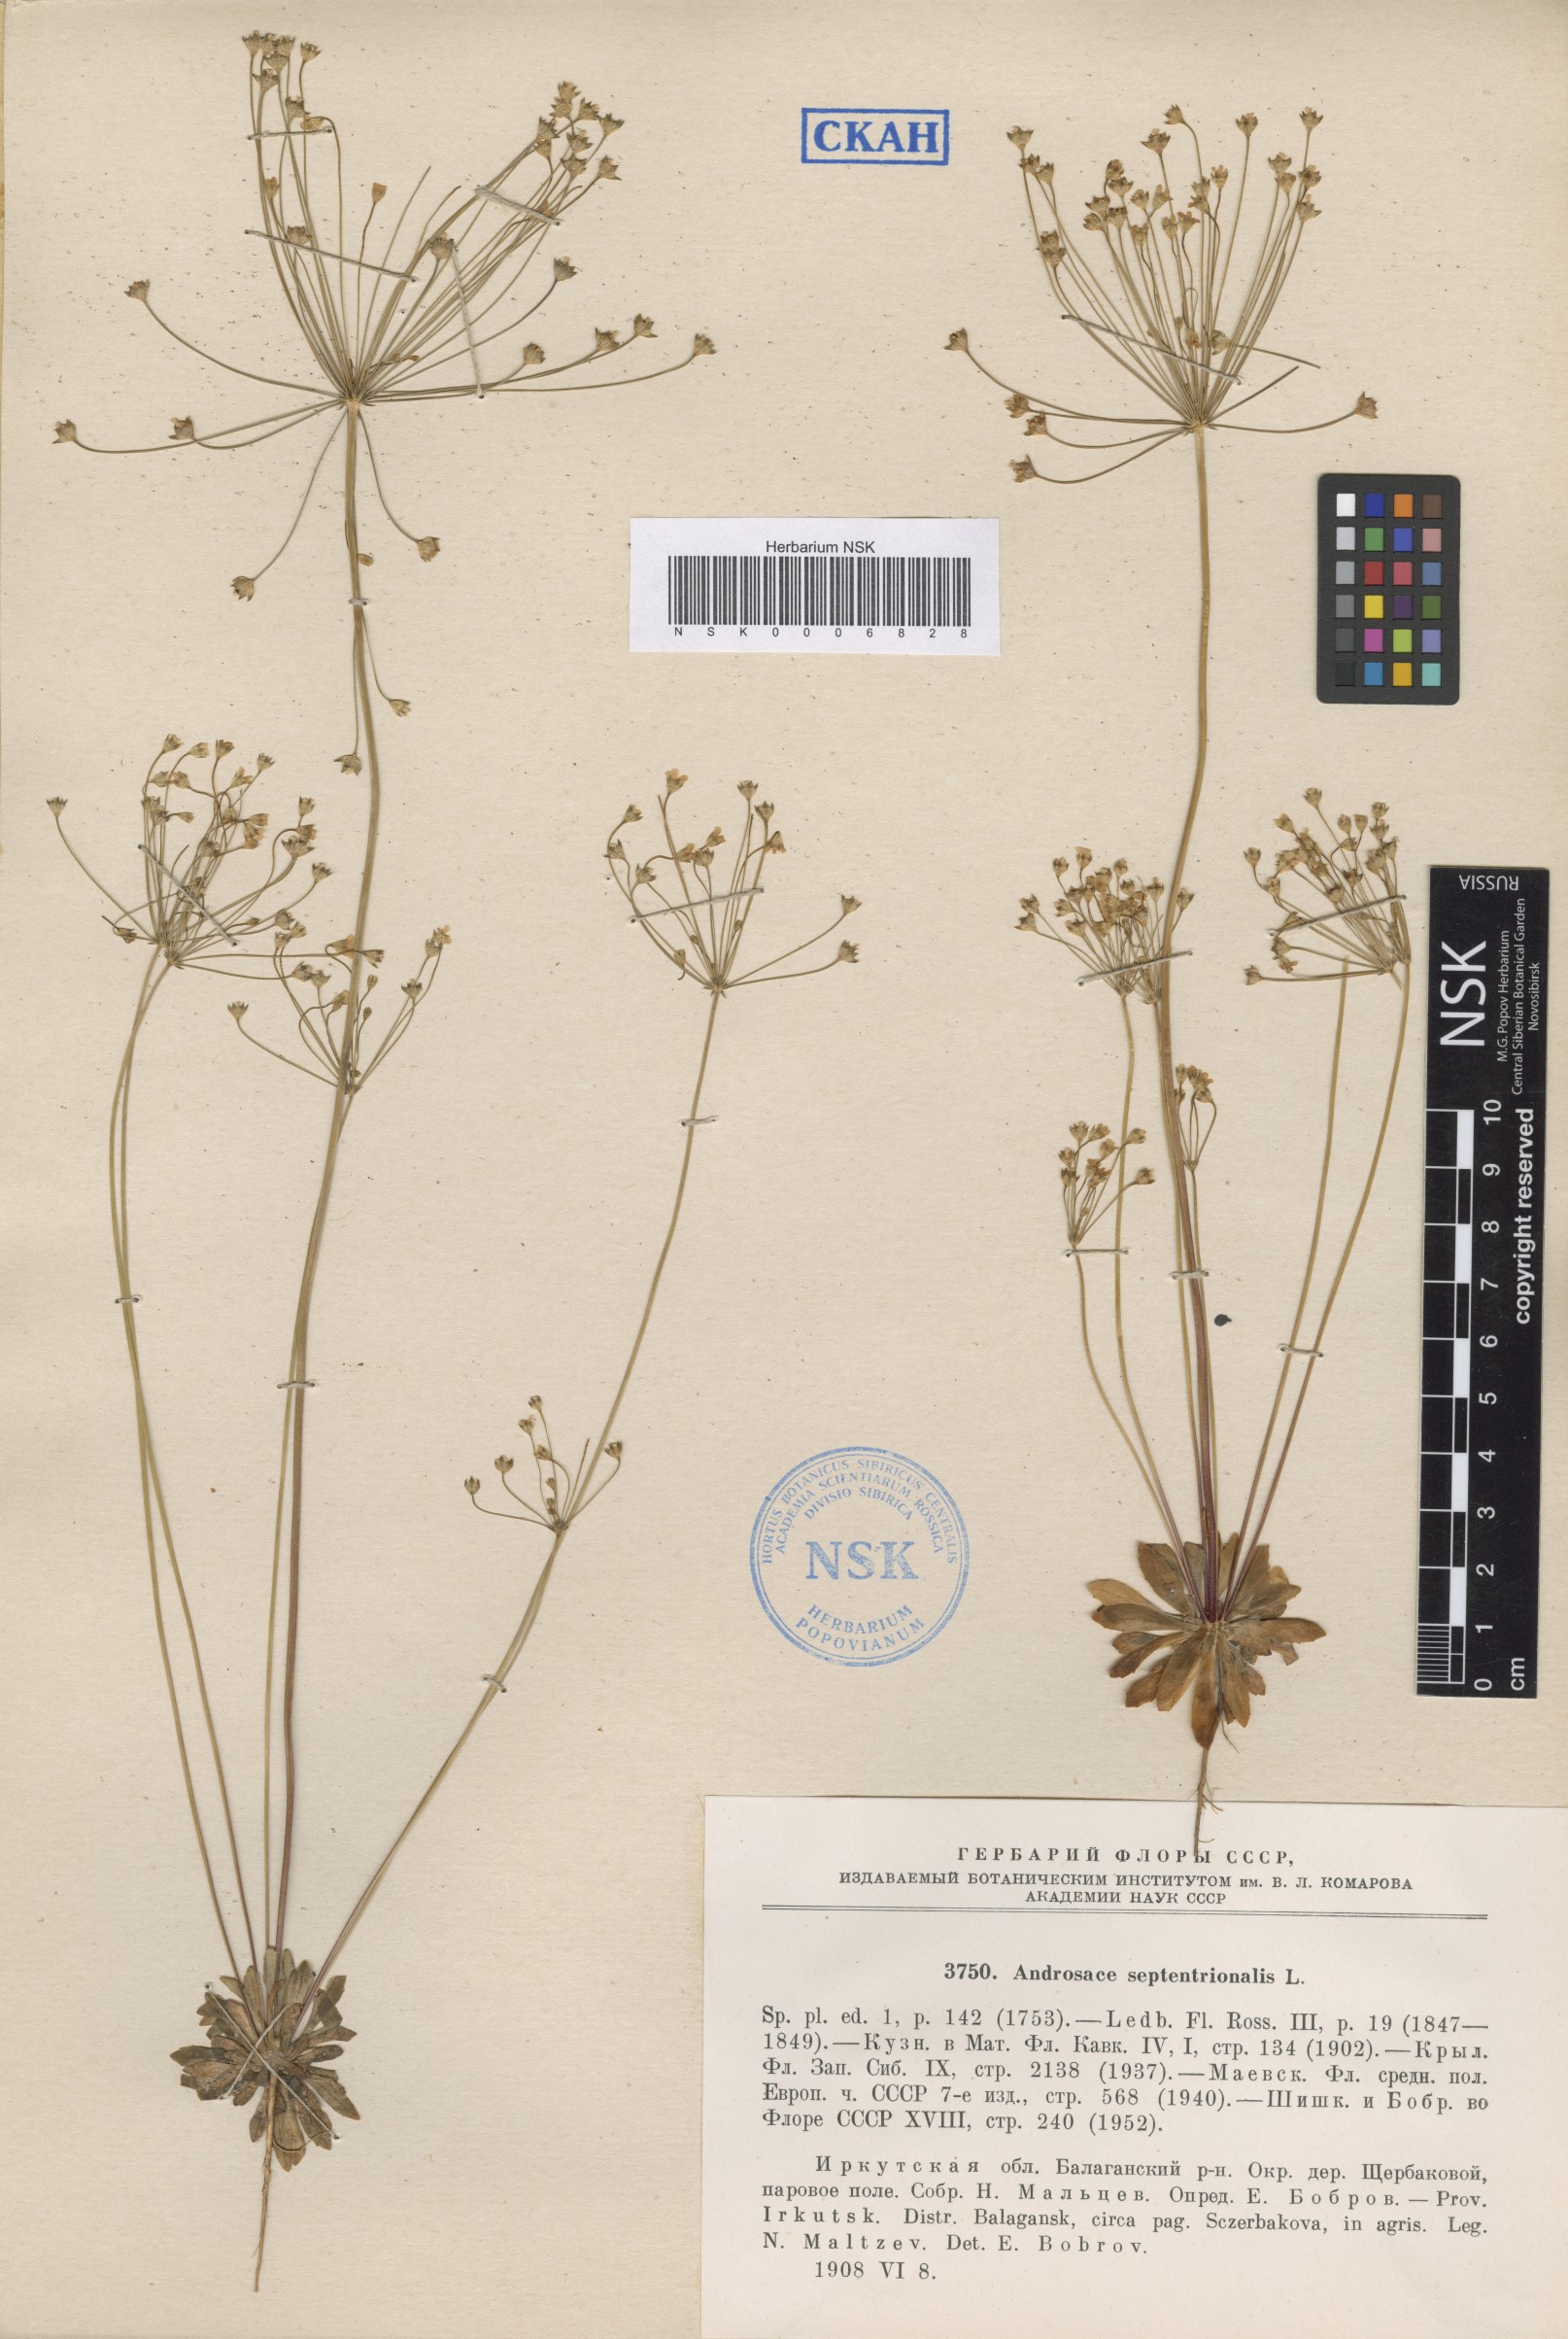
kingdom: Plantae
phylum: Tracheophyta
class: Magnoliopsida
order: Ericales
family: Primulaceae
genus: Androsace
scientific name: Androsace septentrionalis
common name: Hairy northern fairy-candelabra
